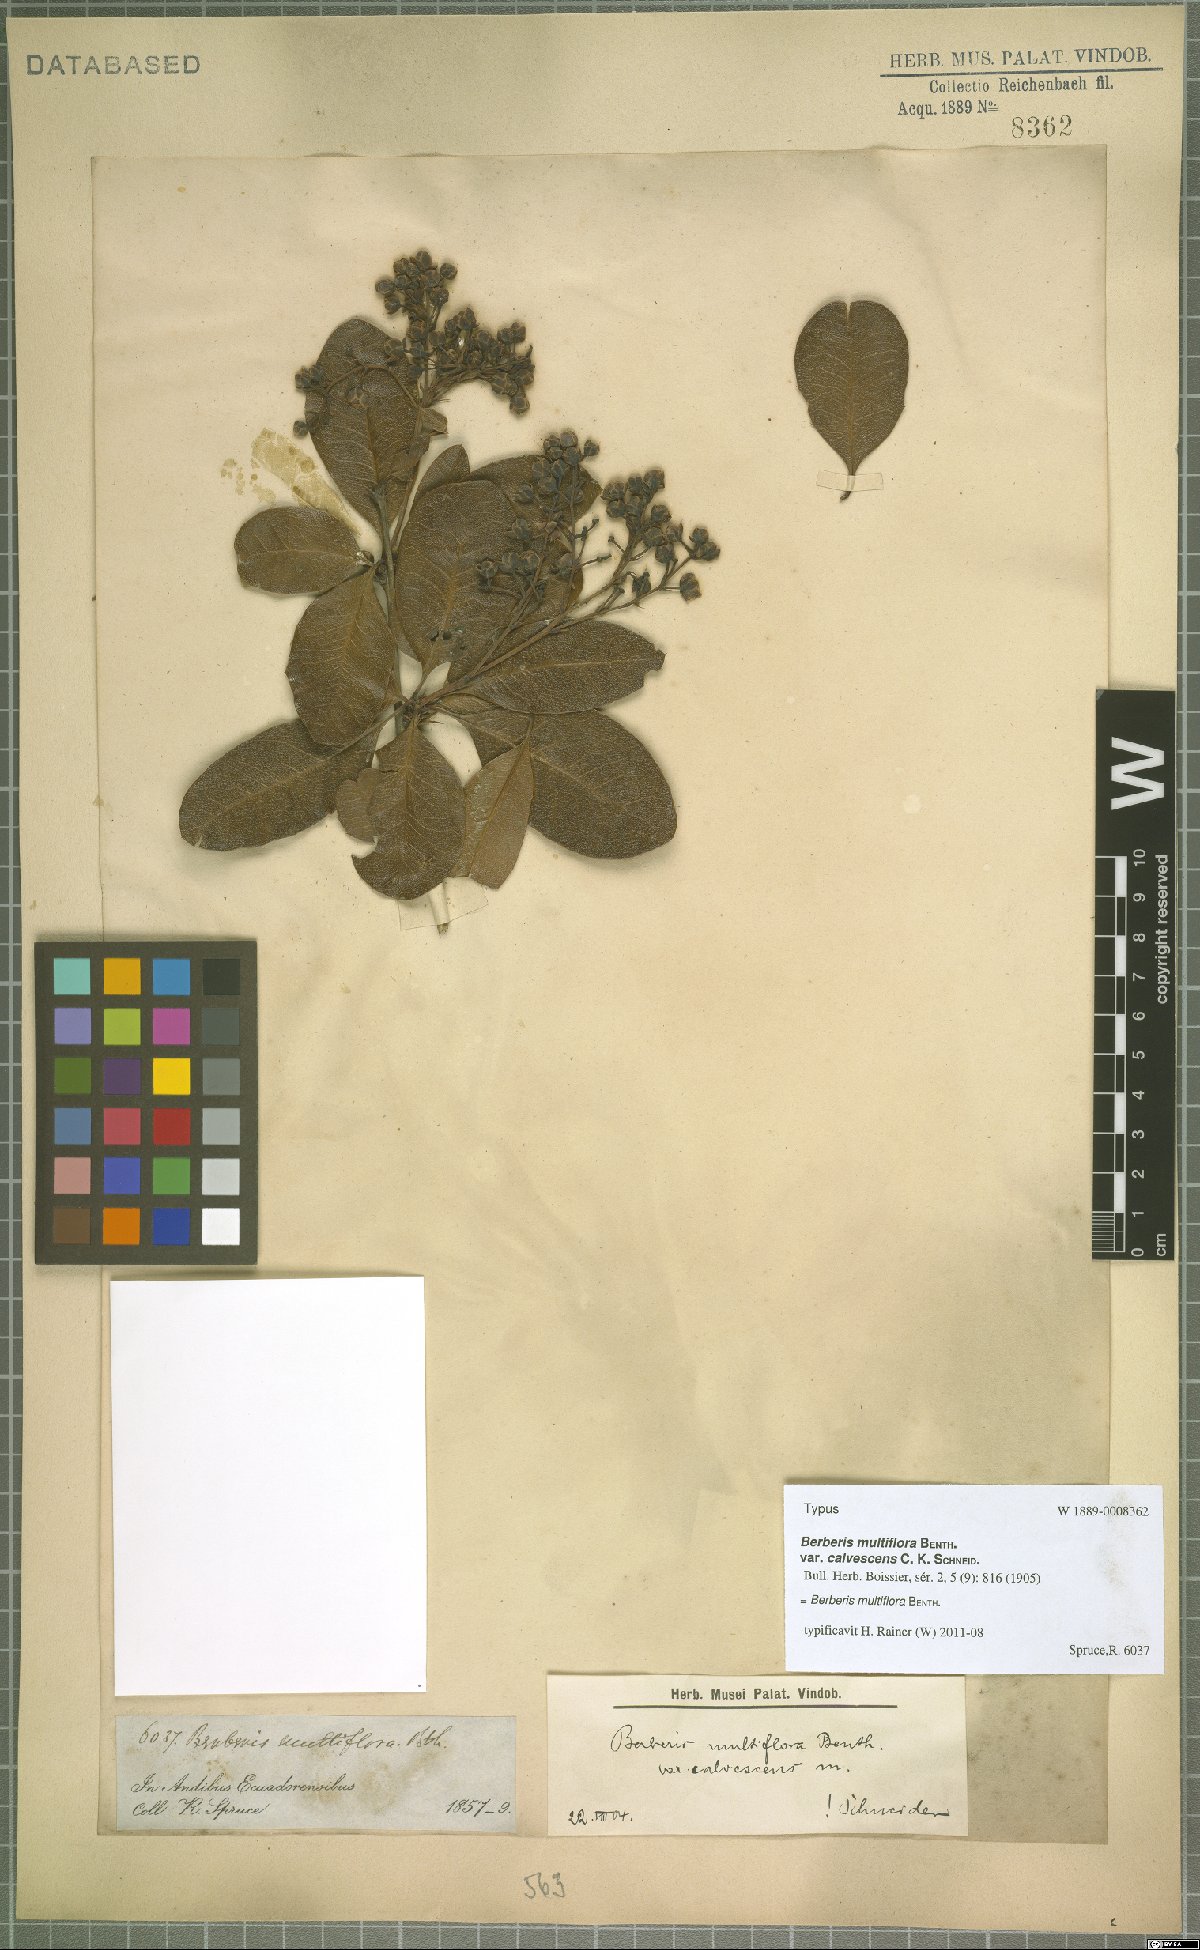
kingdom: Plantae
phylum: Tracheophyta
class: Magnoliopsida
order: Ranunculales
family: Berberidaceae
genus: Berberis
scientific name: Berberis multiflora
